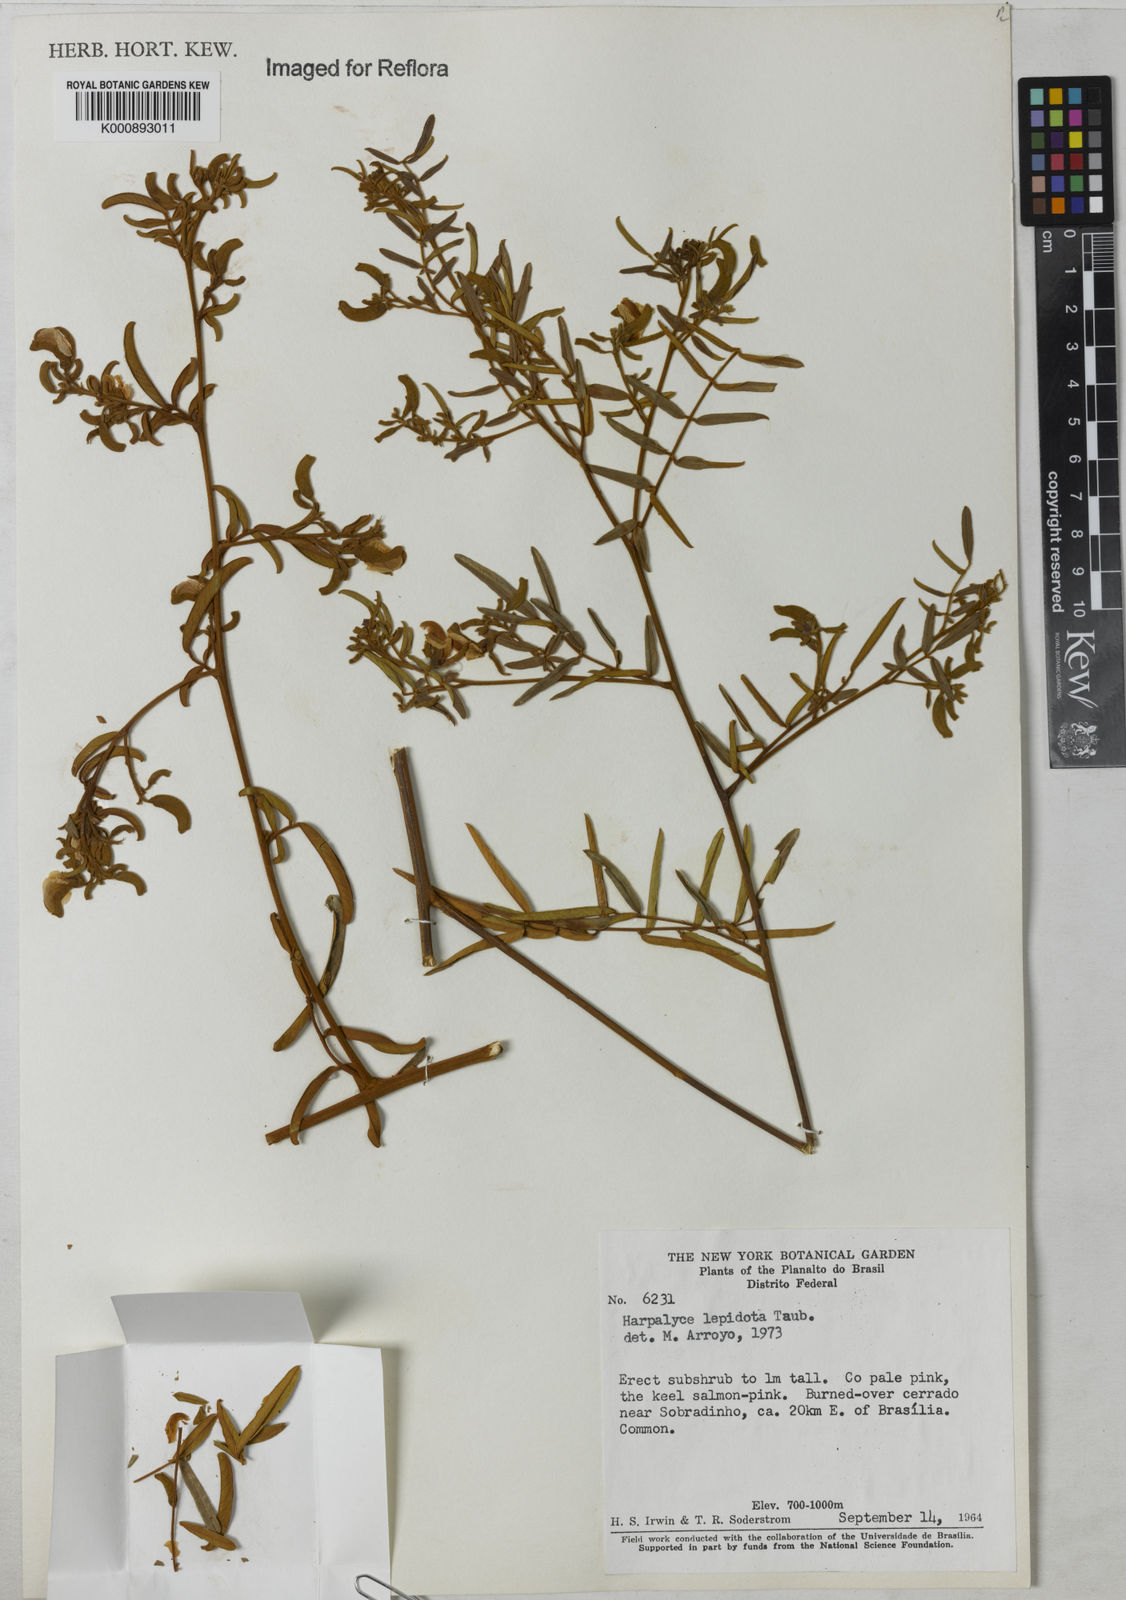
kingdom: Plantae
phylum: Tracheophyta
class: Magnoliopsida
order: Fabales
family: Fabaceae
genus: Harpalyce
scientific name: Harpalyce lepidota
